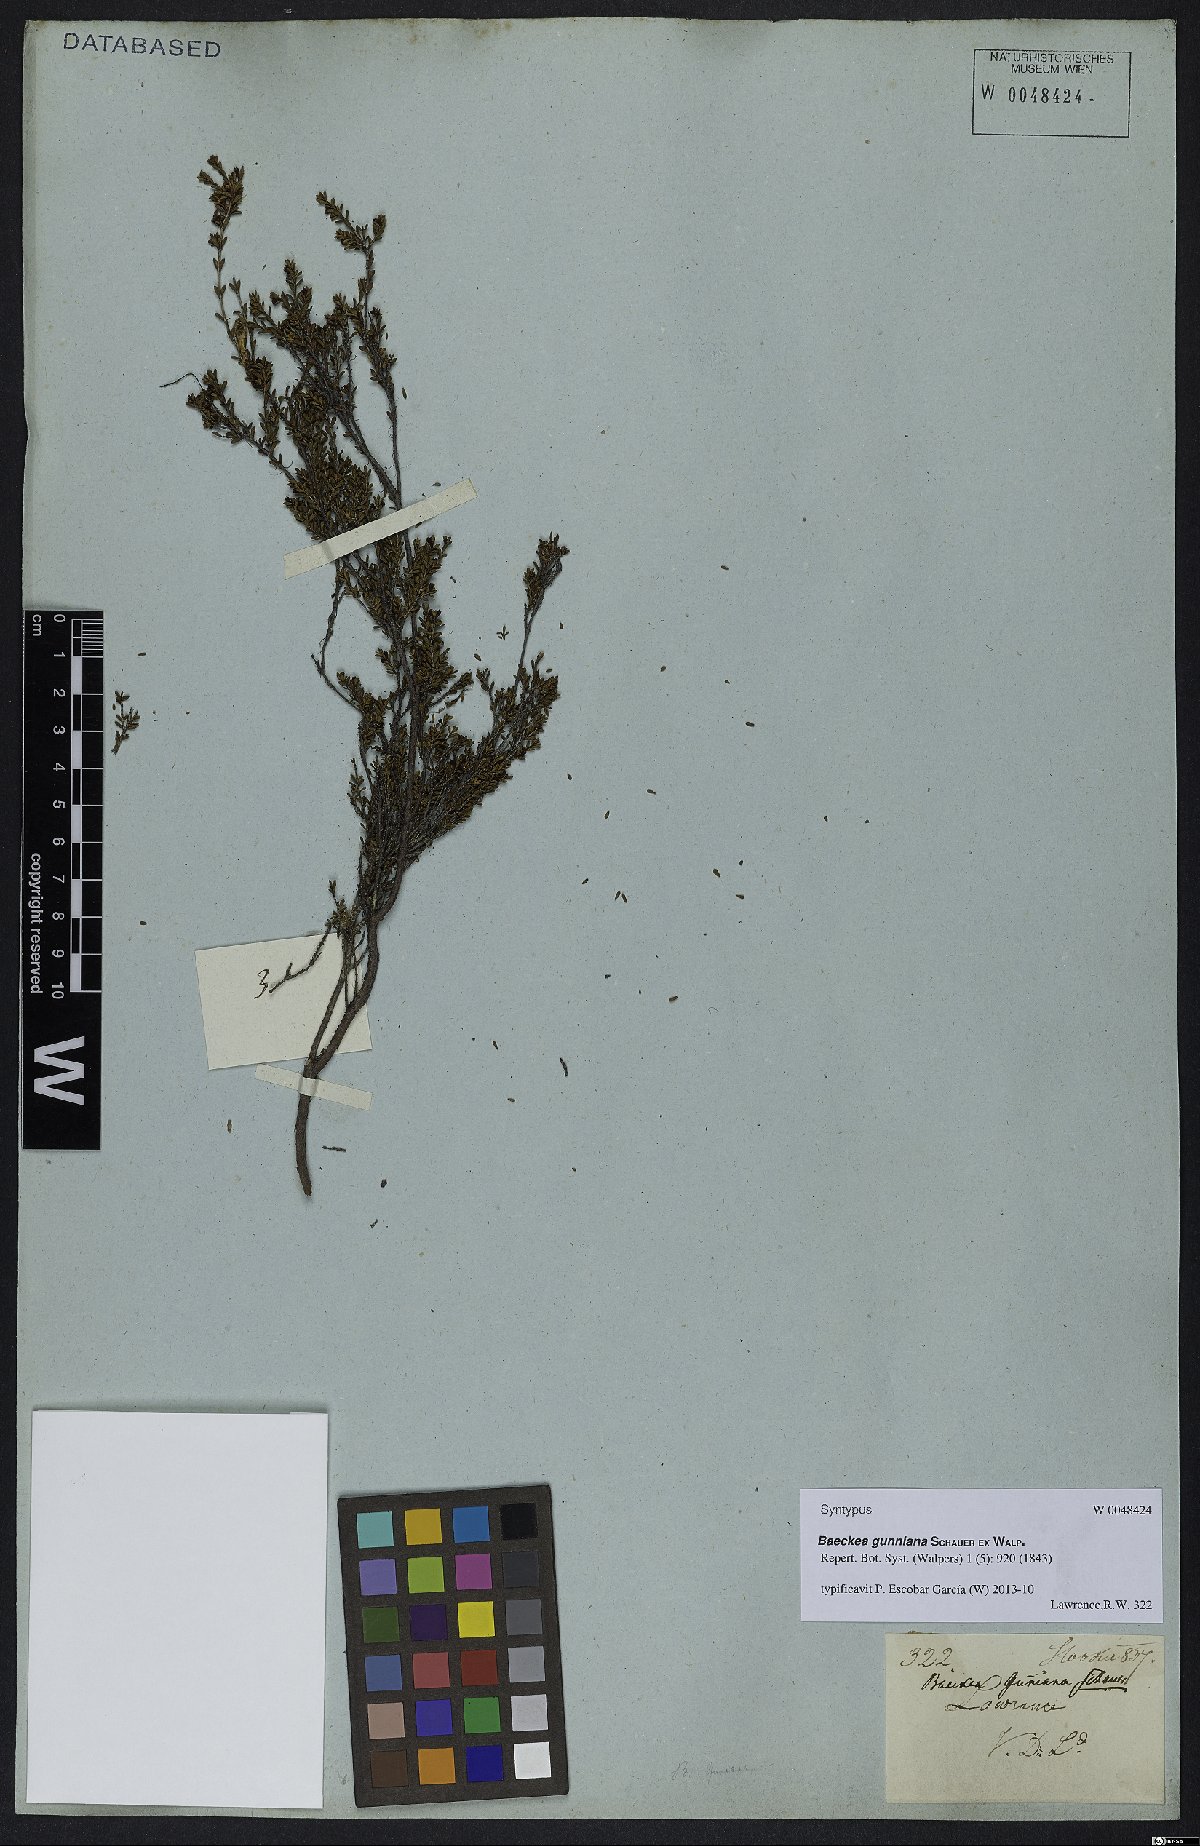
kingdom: Plantae
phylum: Tracheophyta
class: Magnoliopsida
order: Myrtales
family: Myrtaceae
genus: Baeckea
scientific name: Baeckea gunniana
